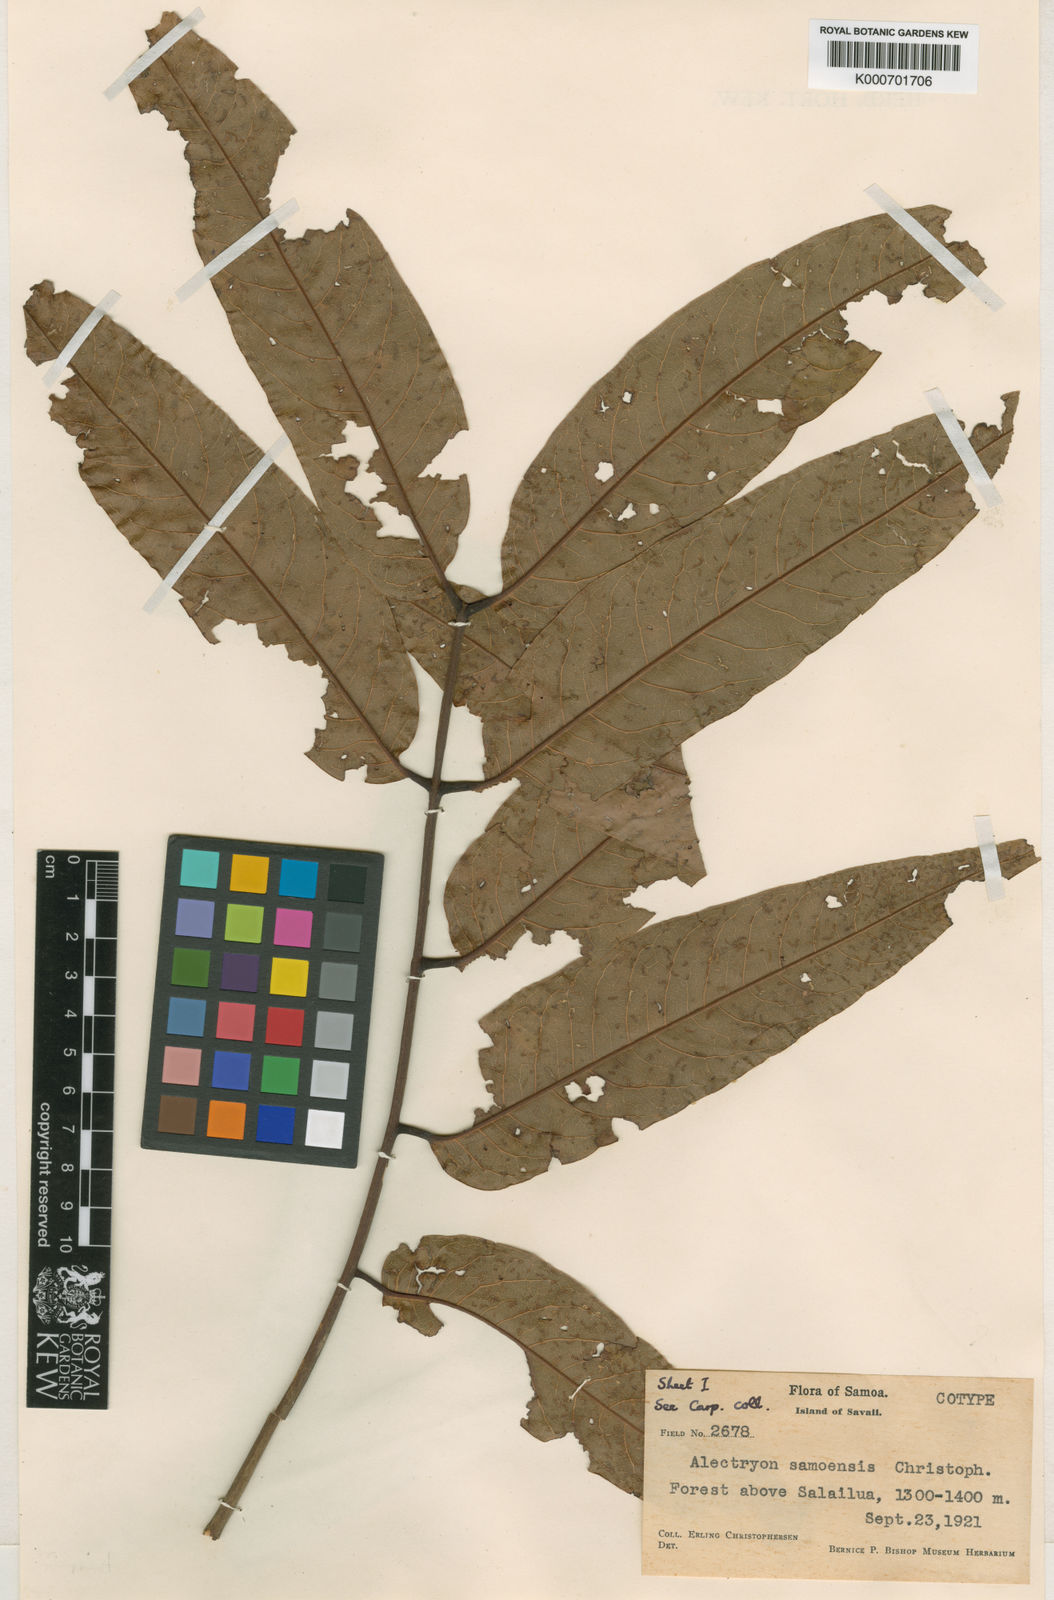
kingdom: Plantae
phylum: Tracheophyta
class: Magnoliopsida
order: Sapindales
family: Sapindaceae
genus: Alectryon
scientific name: Alectryon samoensis
